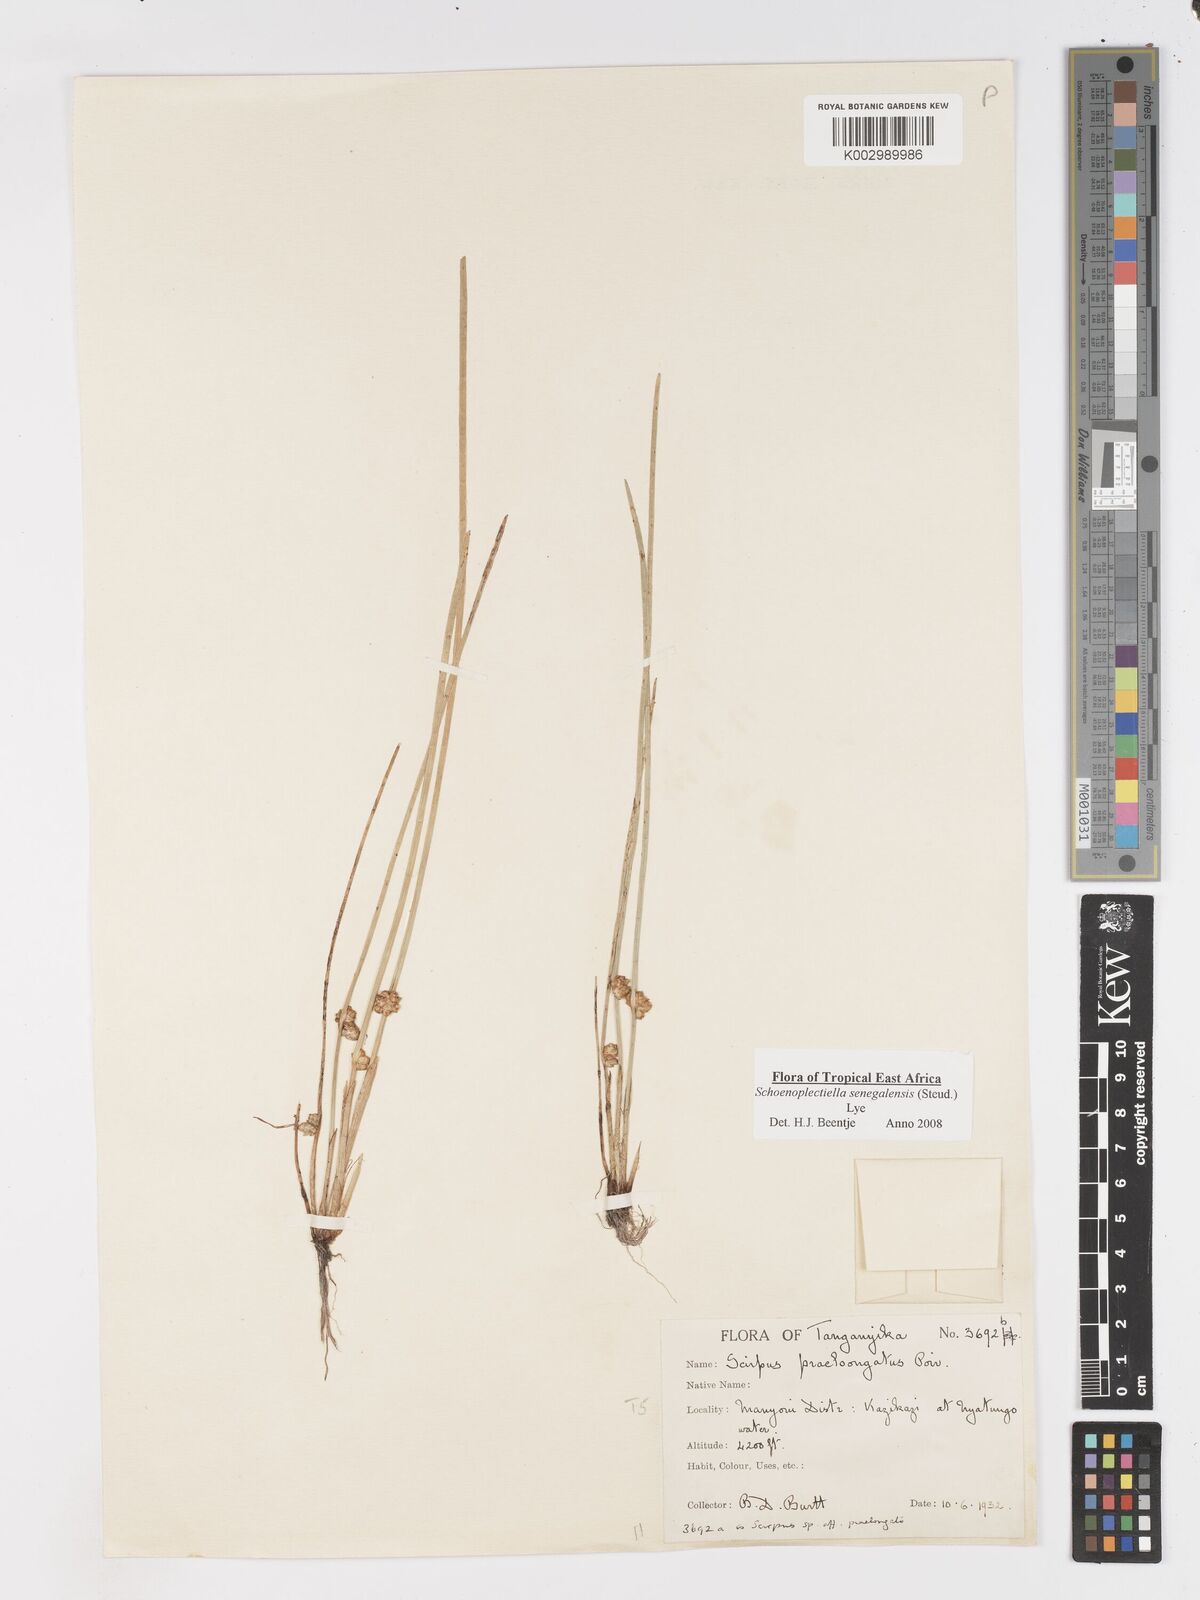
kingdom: Plantae
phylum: Tracheophyta
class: Liliopsida
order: Poales
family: Cyperaceae
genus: Schoenoplectiella
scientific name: Schoenoplectiella senegalensis
